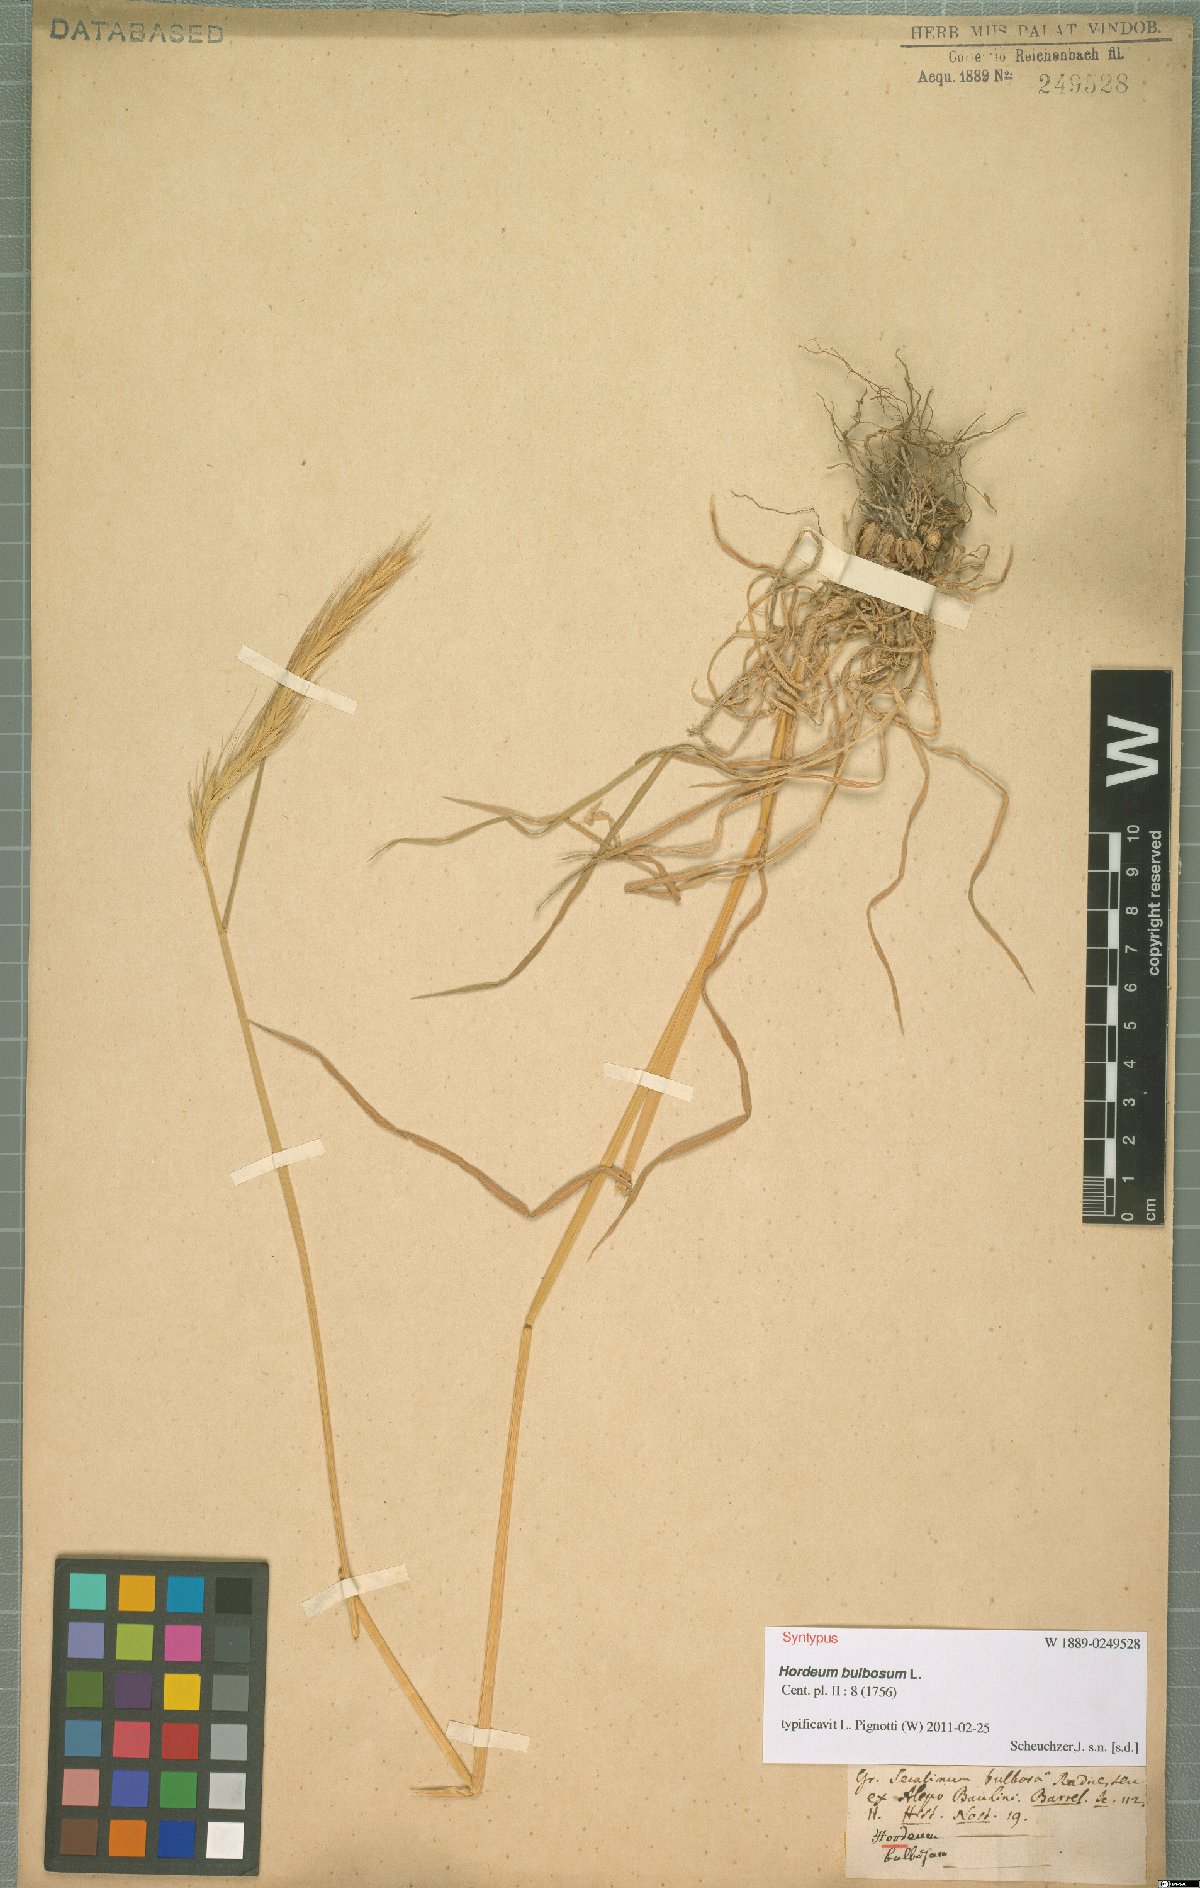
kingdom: Plantae
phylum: Tracheophyta
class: Liliopsida
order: Poales
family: Poaceae
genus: Hordeum
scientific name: Hordeum bulbosum
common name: Bulbous barley
